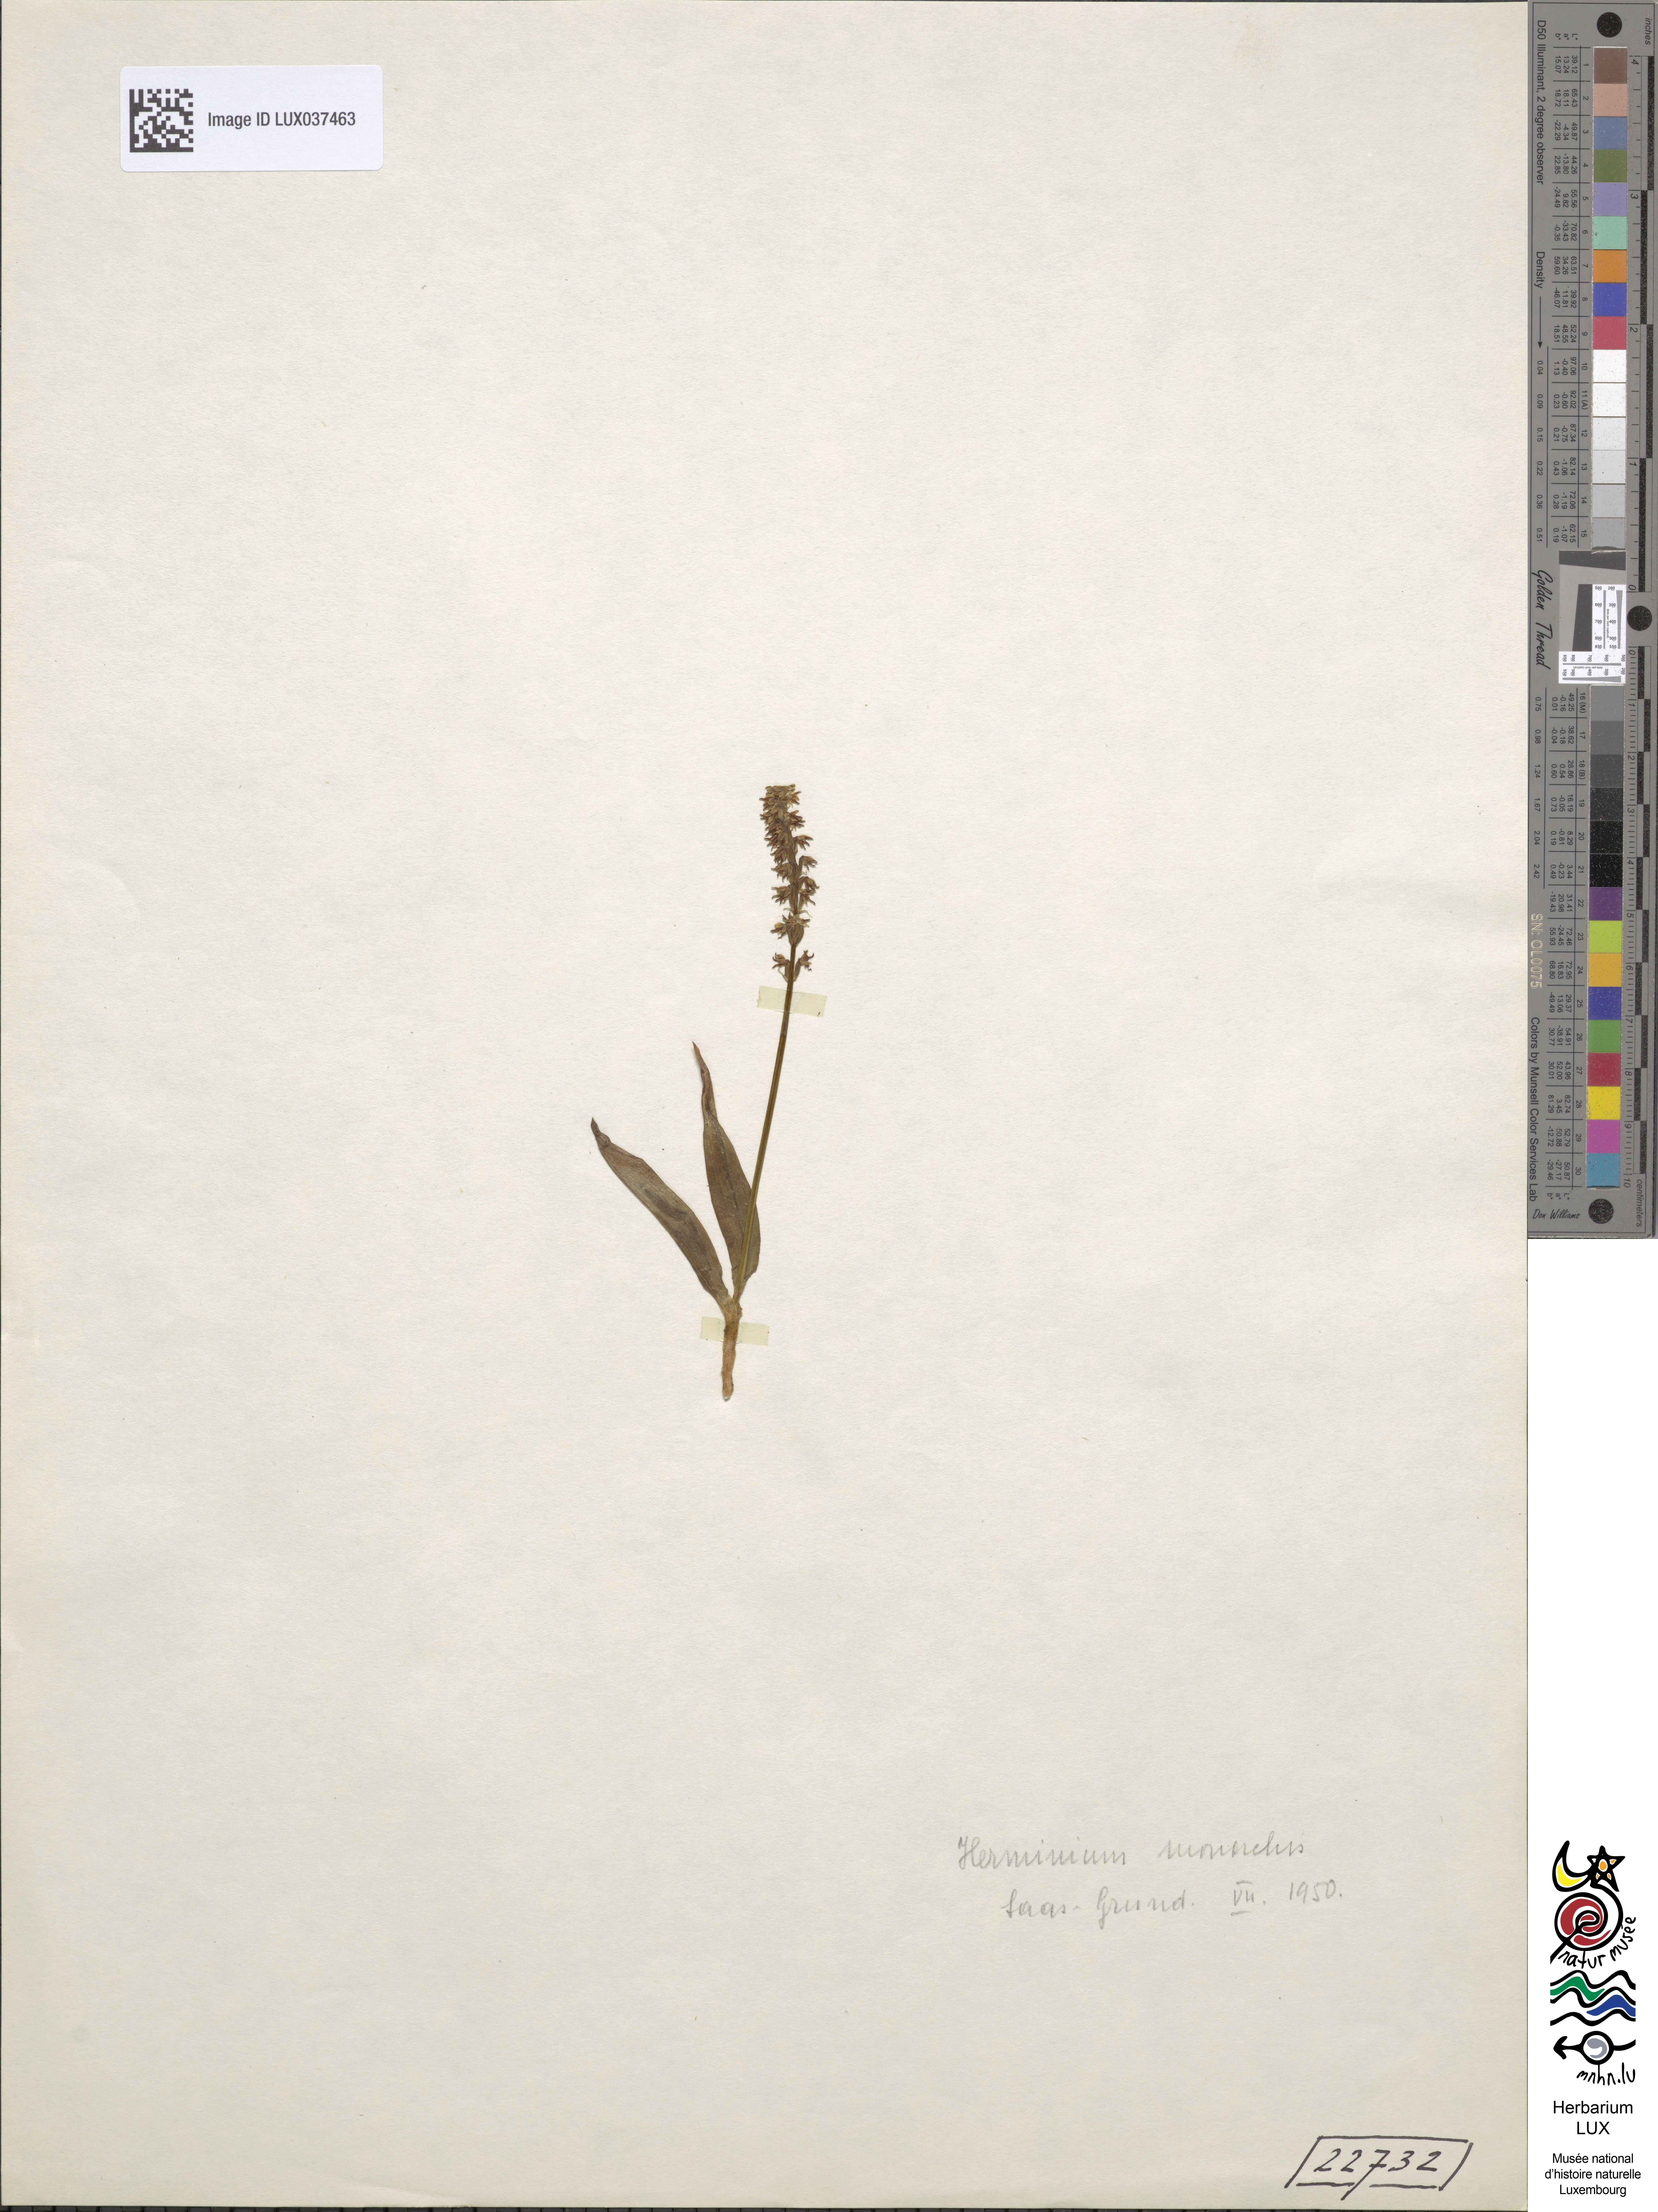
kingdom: Plantae
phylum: Tracheophyta
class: Liliopsida
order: Asparagales
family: Orchidaceae
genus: Herminium
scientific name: Herminium monorchis
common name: Musk orchid
